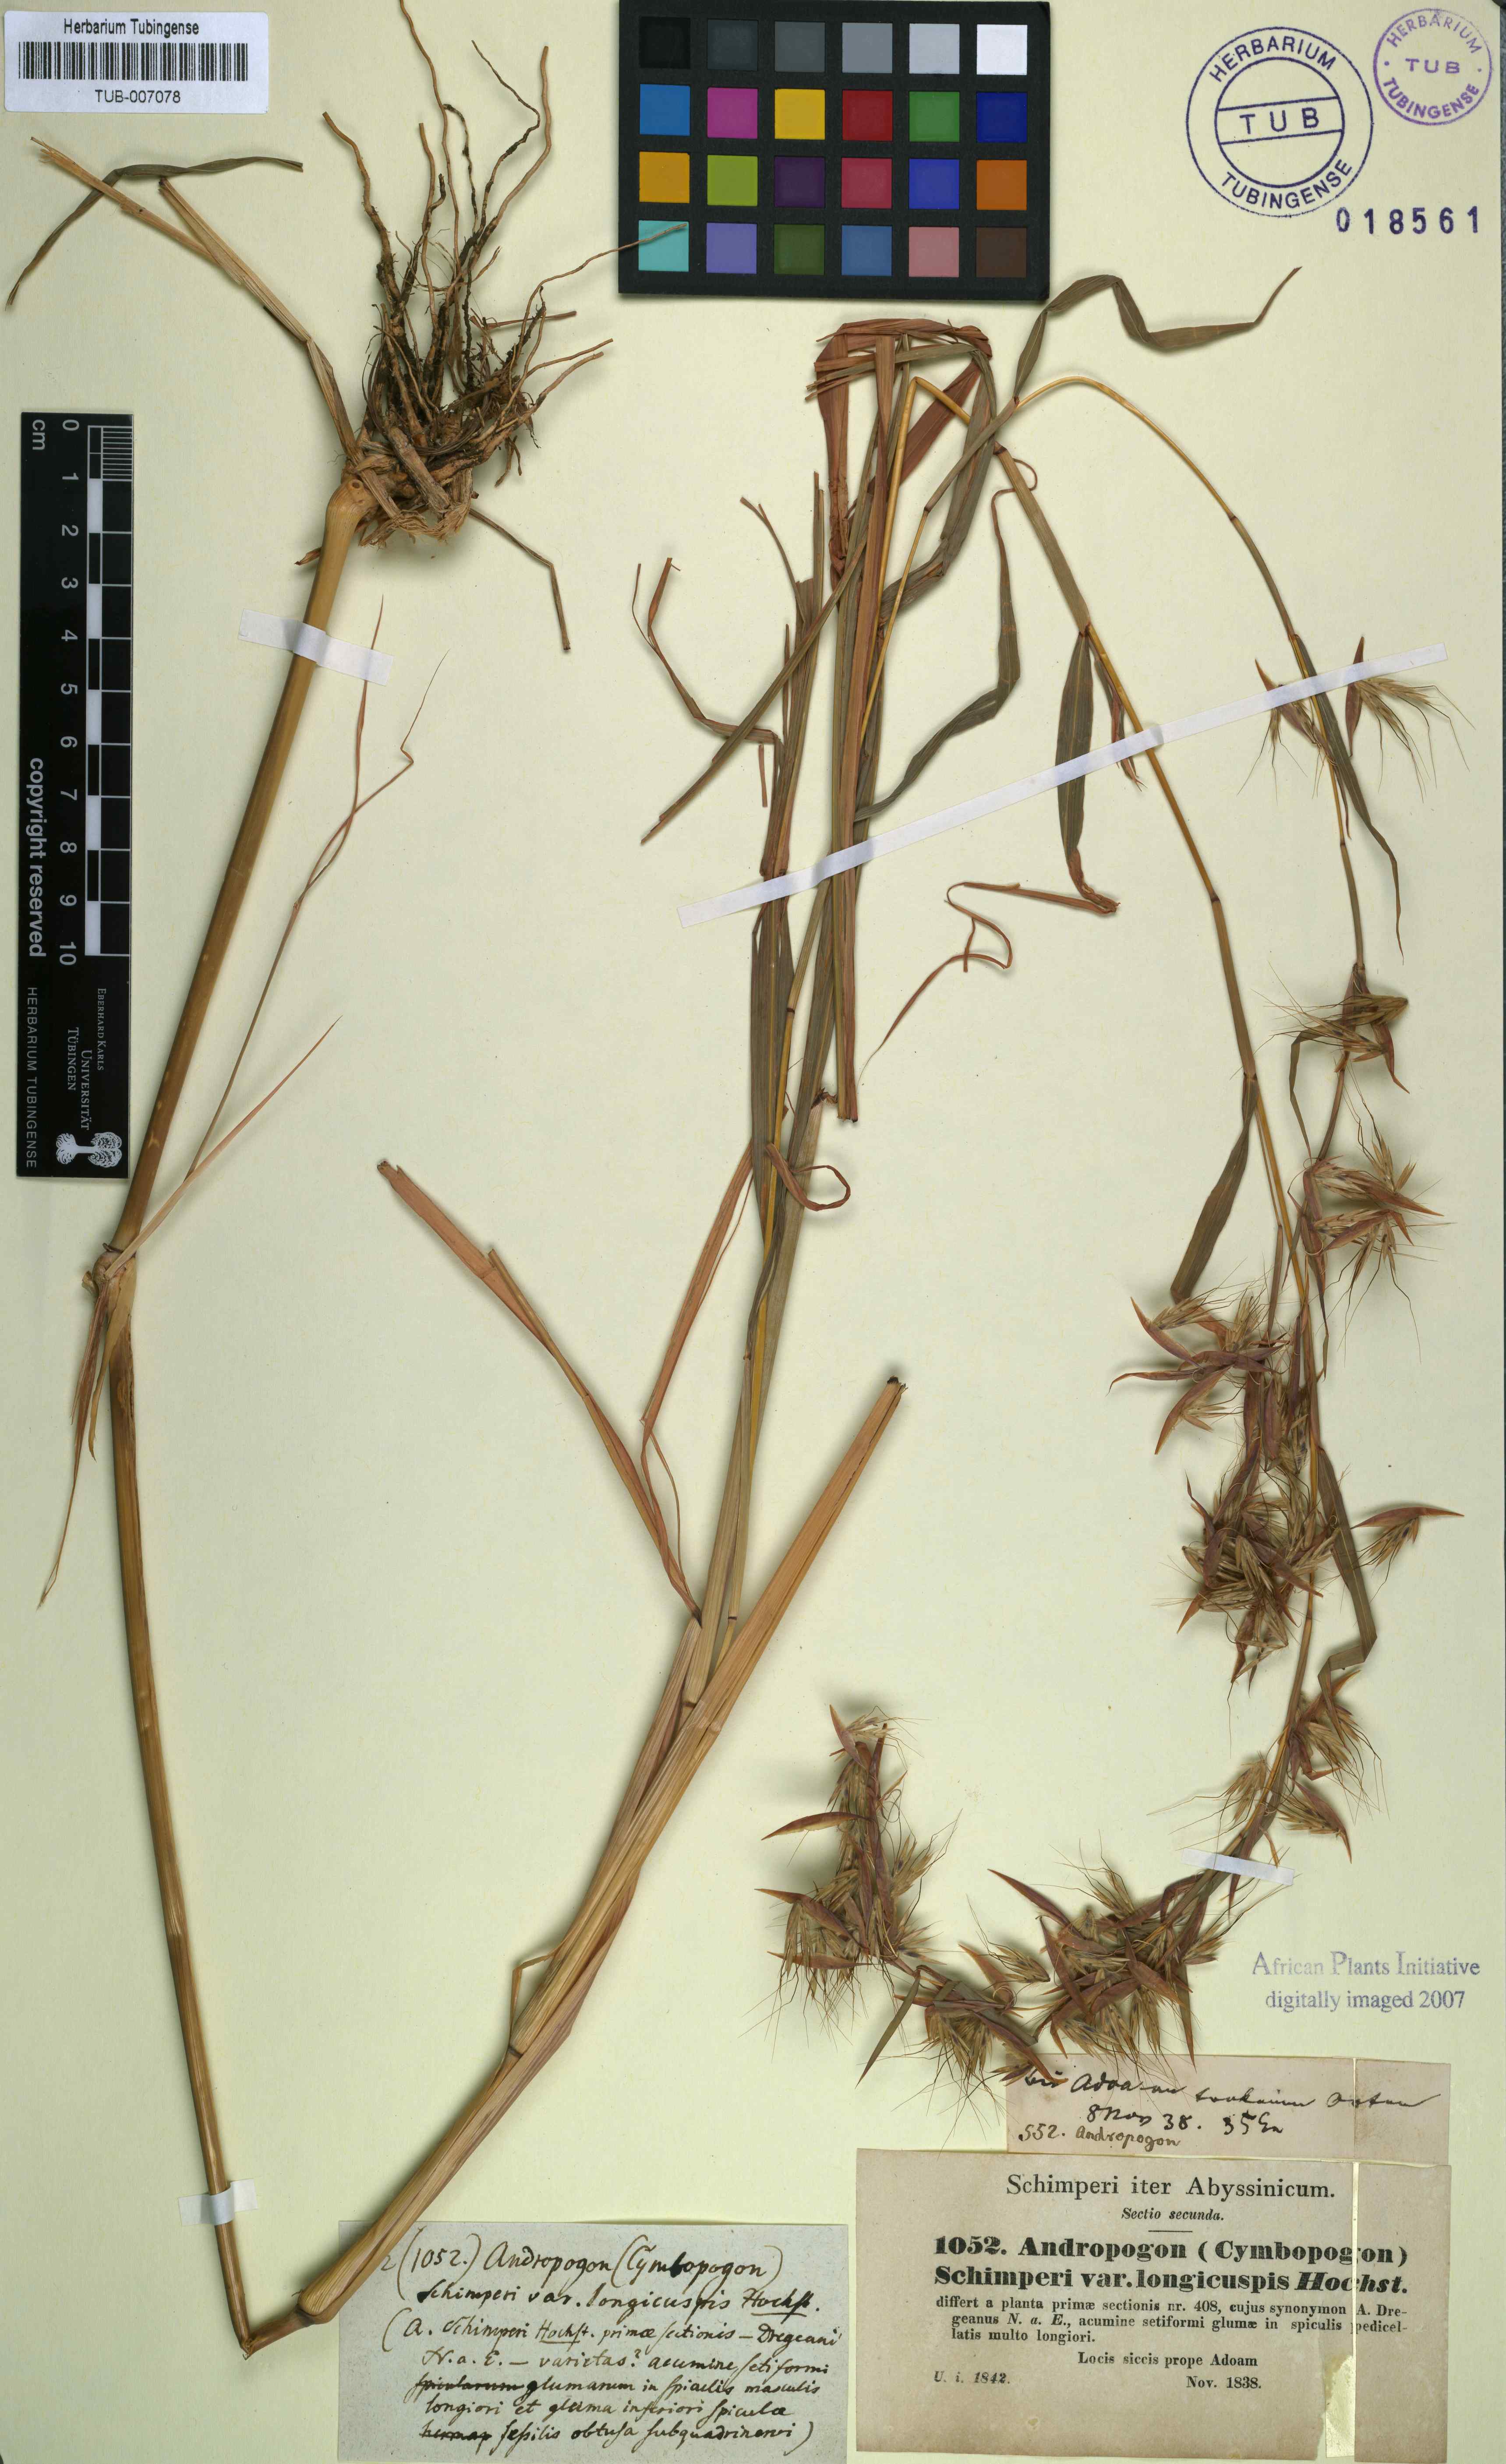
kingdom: Plantae
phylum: Tracheophyta
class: Liliopsida
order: Poales
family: Poaceae
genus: Hyparrhenia
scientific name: Hyparrhenia schimperi
